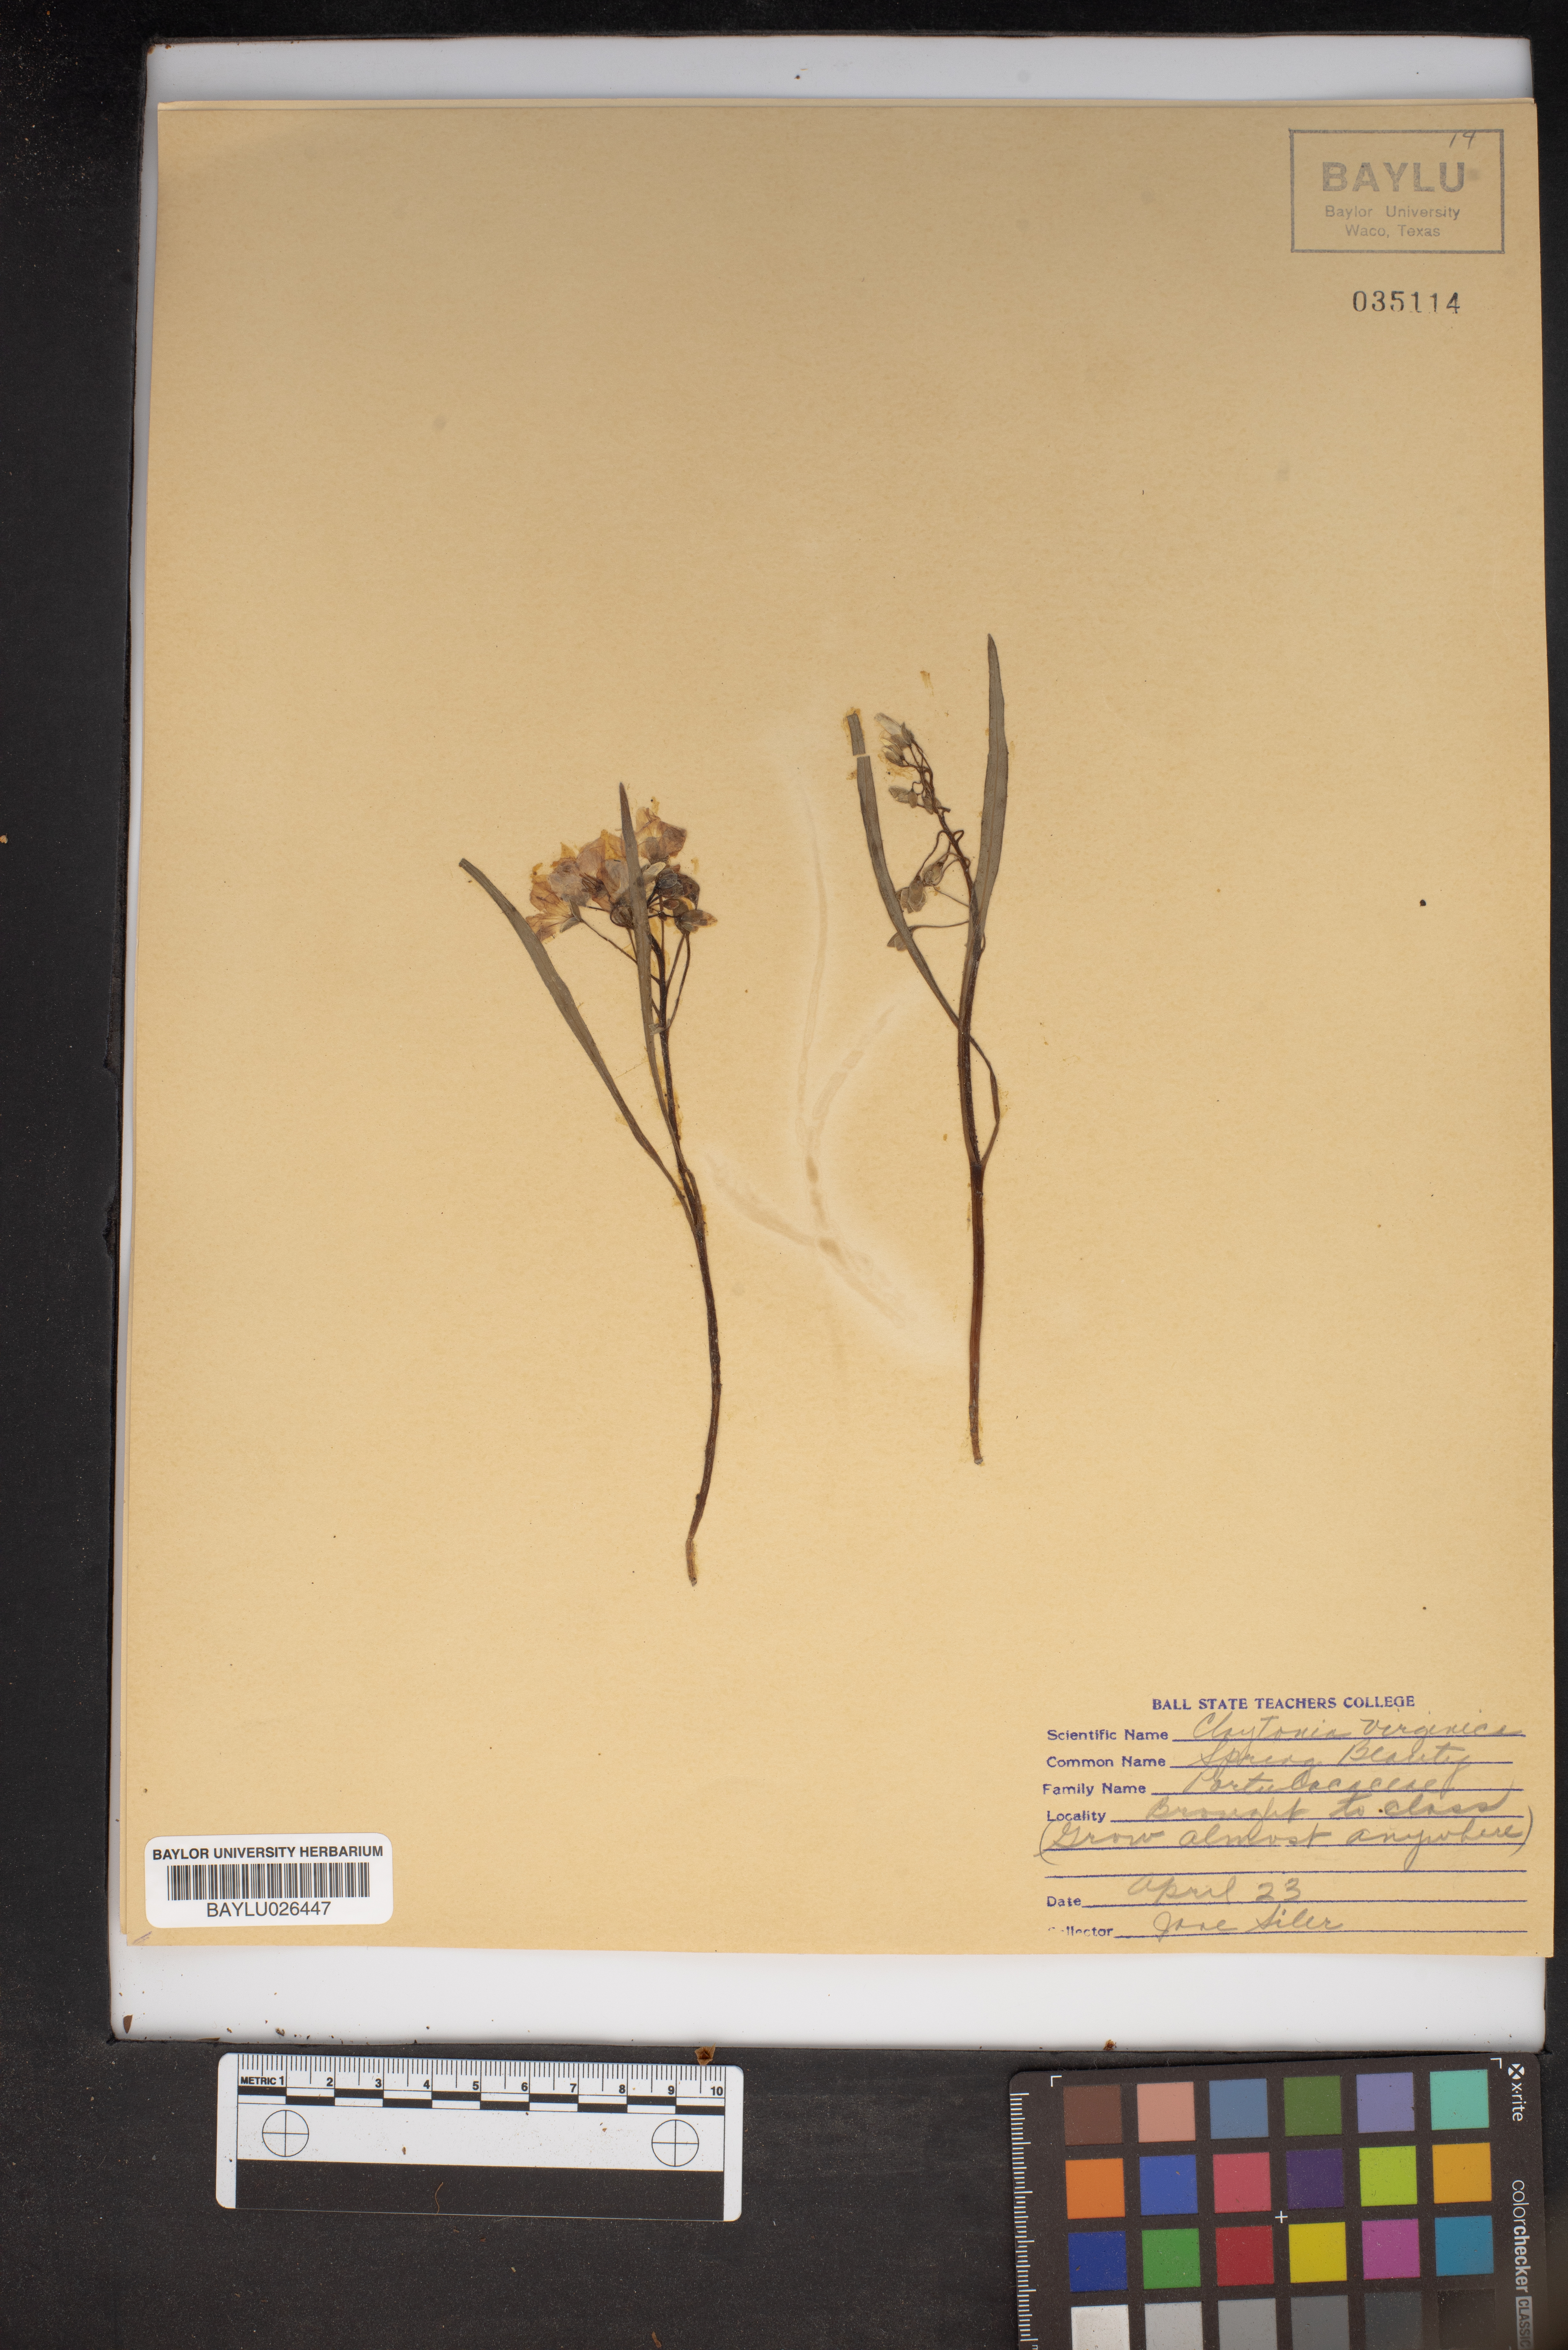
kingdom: Plantae
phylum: Tracheophyta
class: Magnoliopsida
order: Caryophyllales
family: Montiaceae
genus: Claytonia
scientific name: Claytonia virginica
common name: Virginia springbeauty
